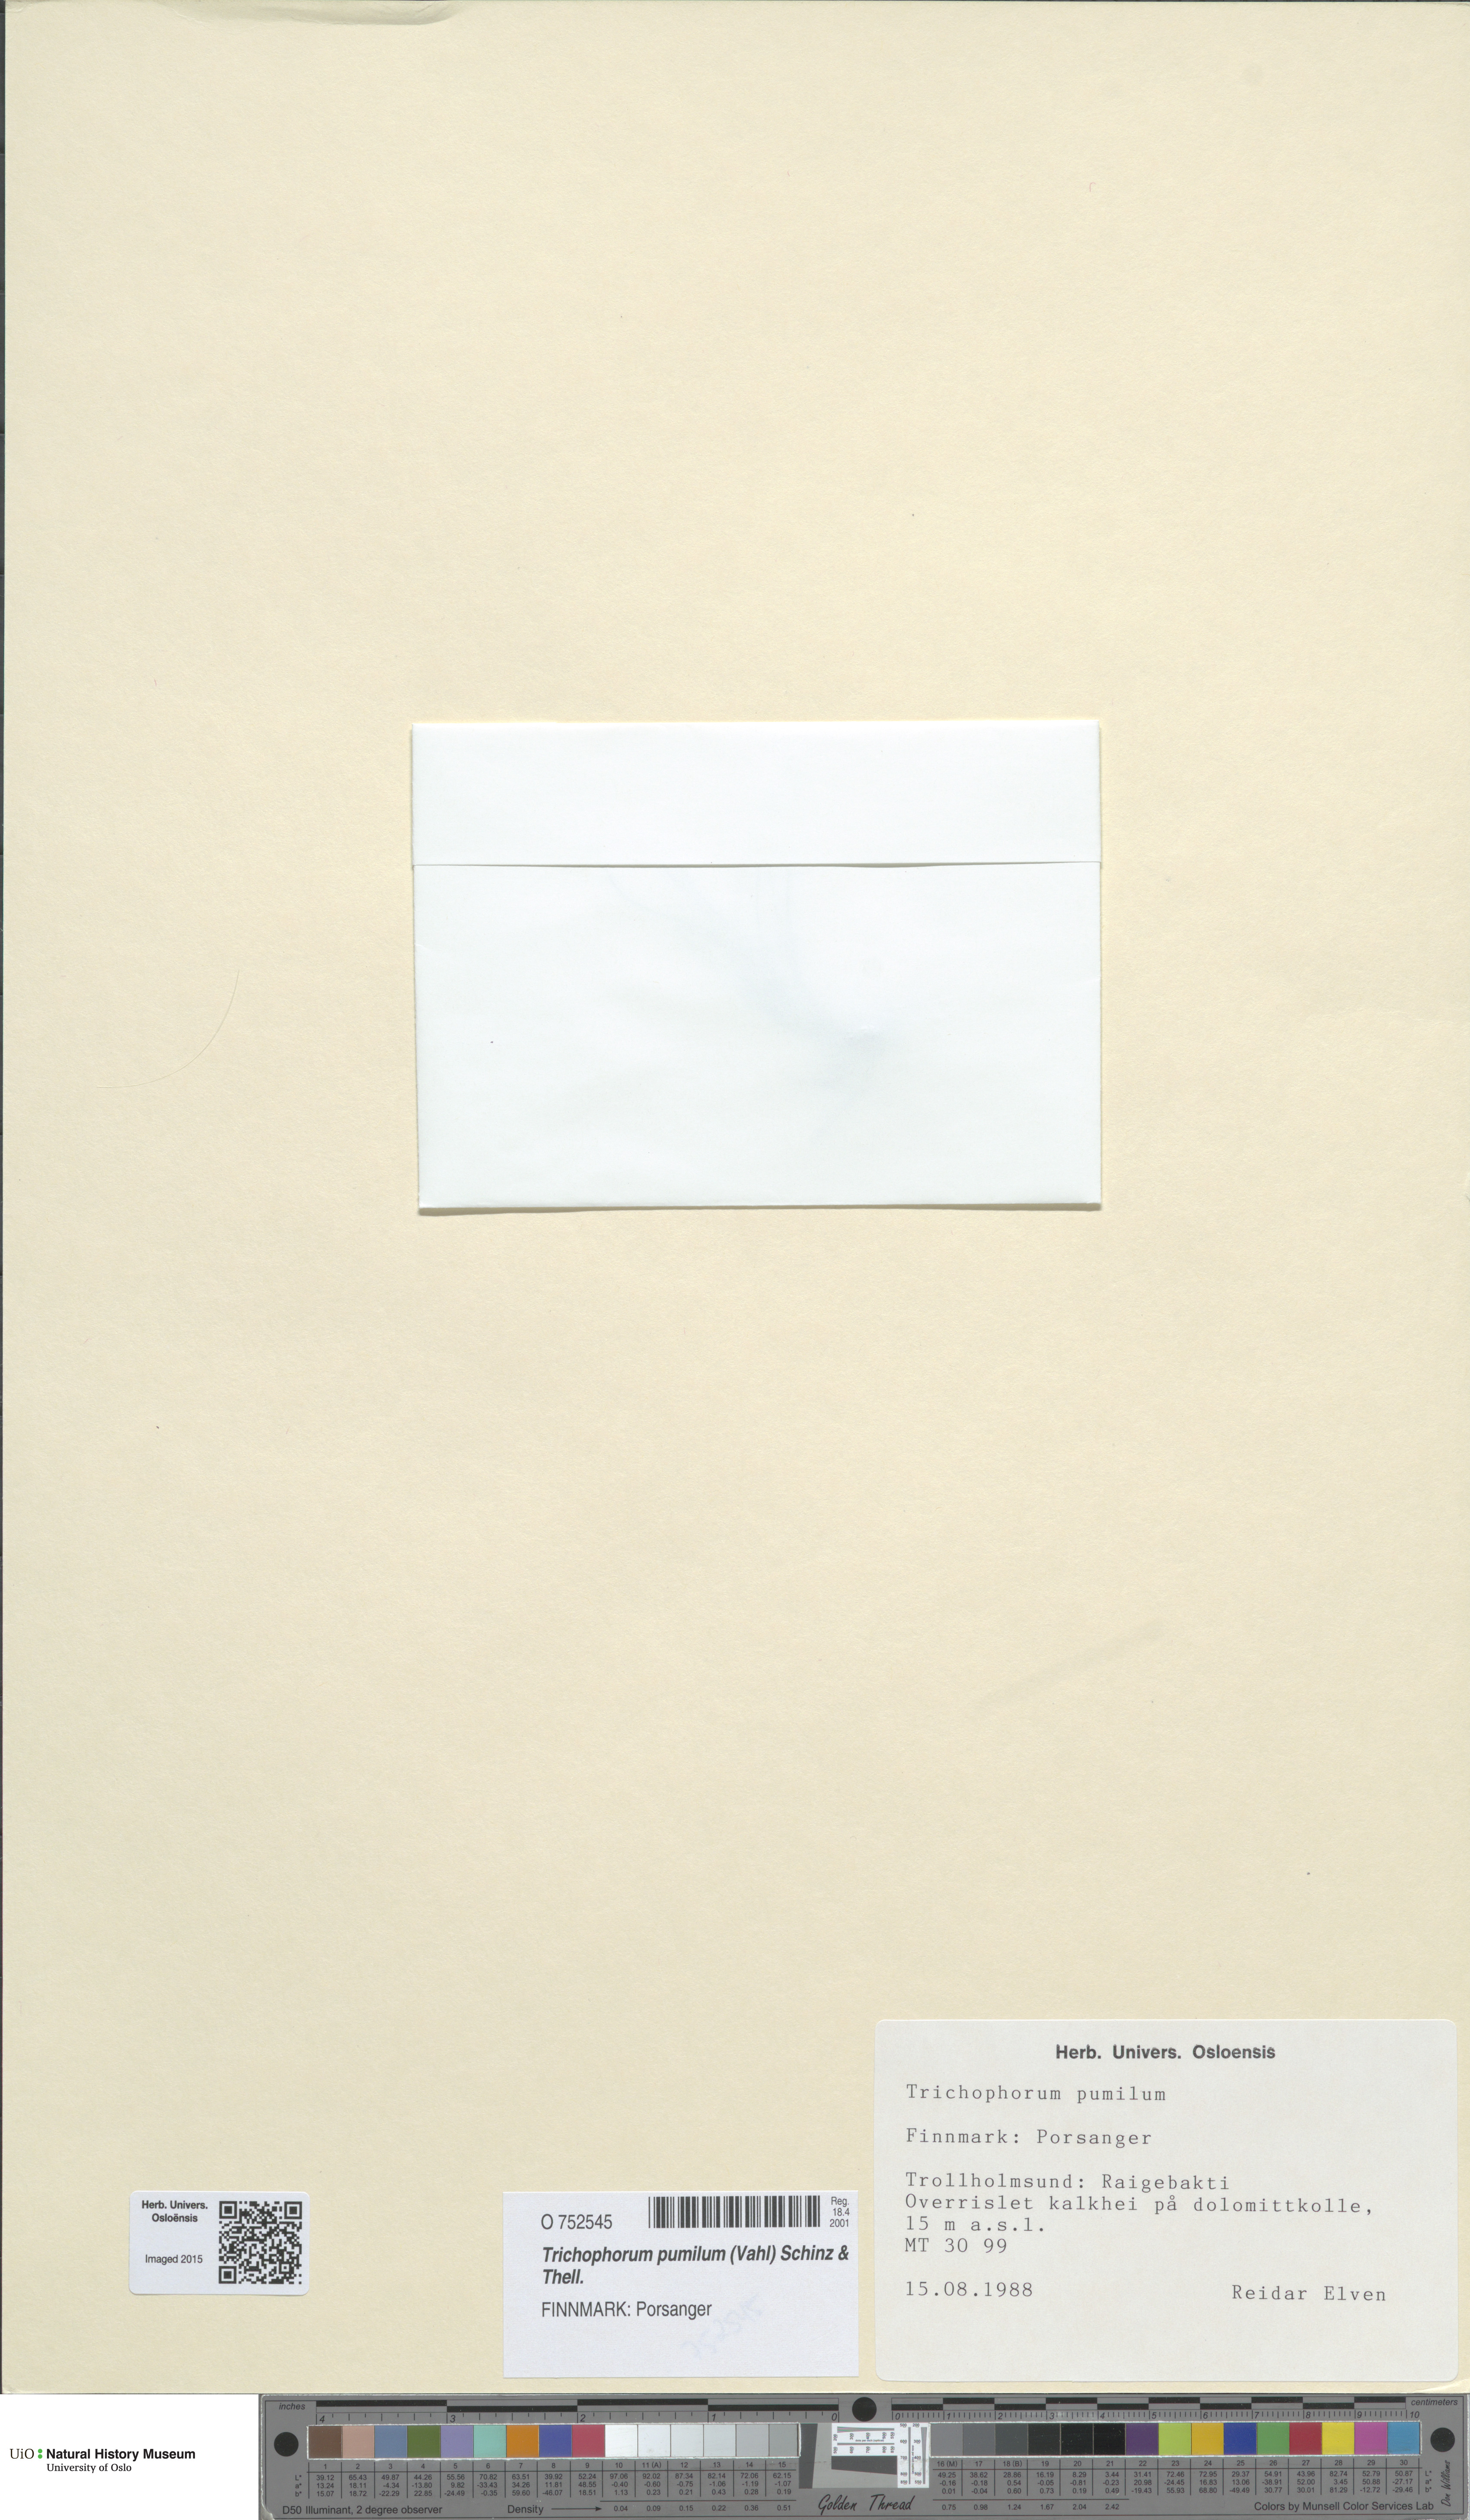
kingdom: Plantae
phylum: Tracheophyta
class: Liliopsida
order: Poales
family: Cyperaceae
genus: Trichophorum
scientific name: Trichophorum pumilum
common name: Rolland's bulrush
